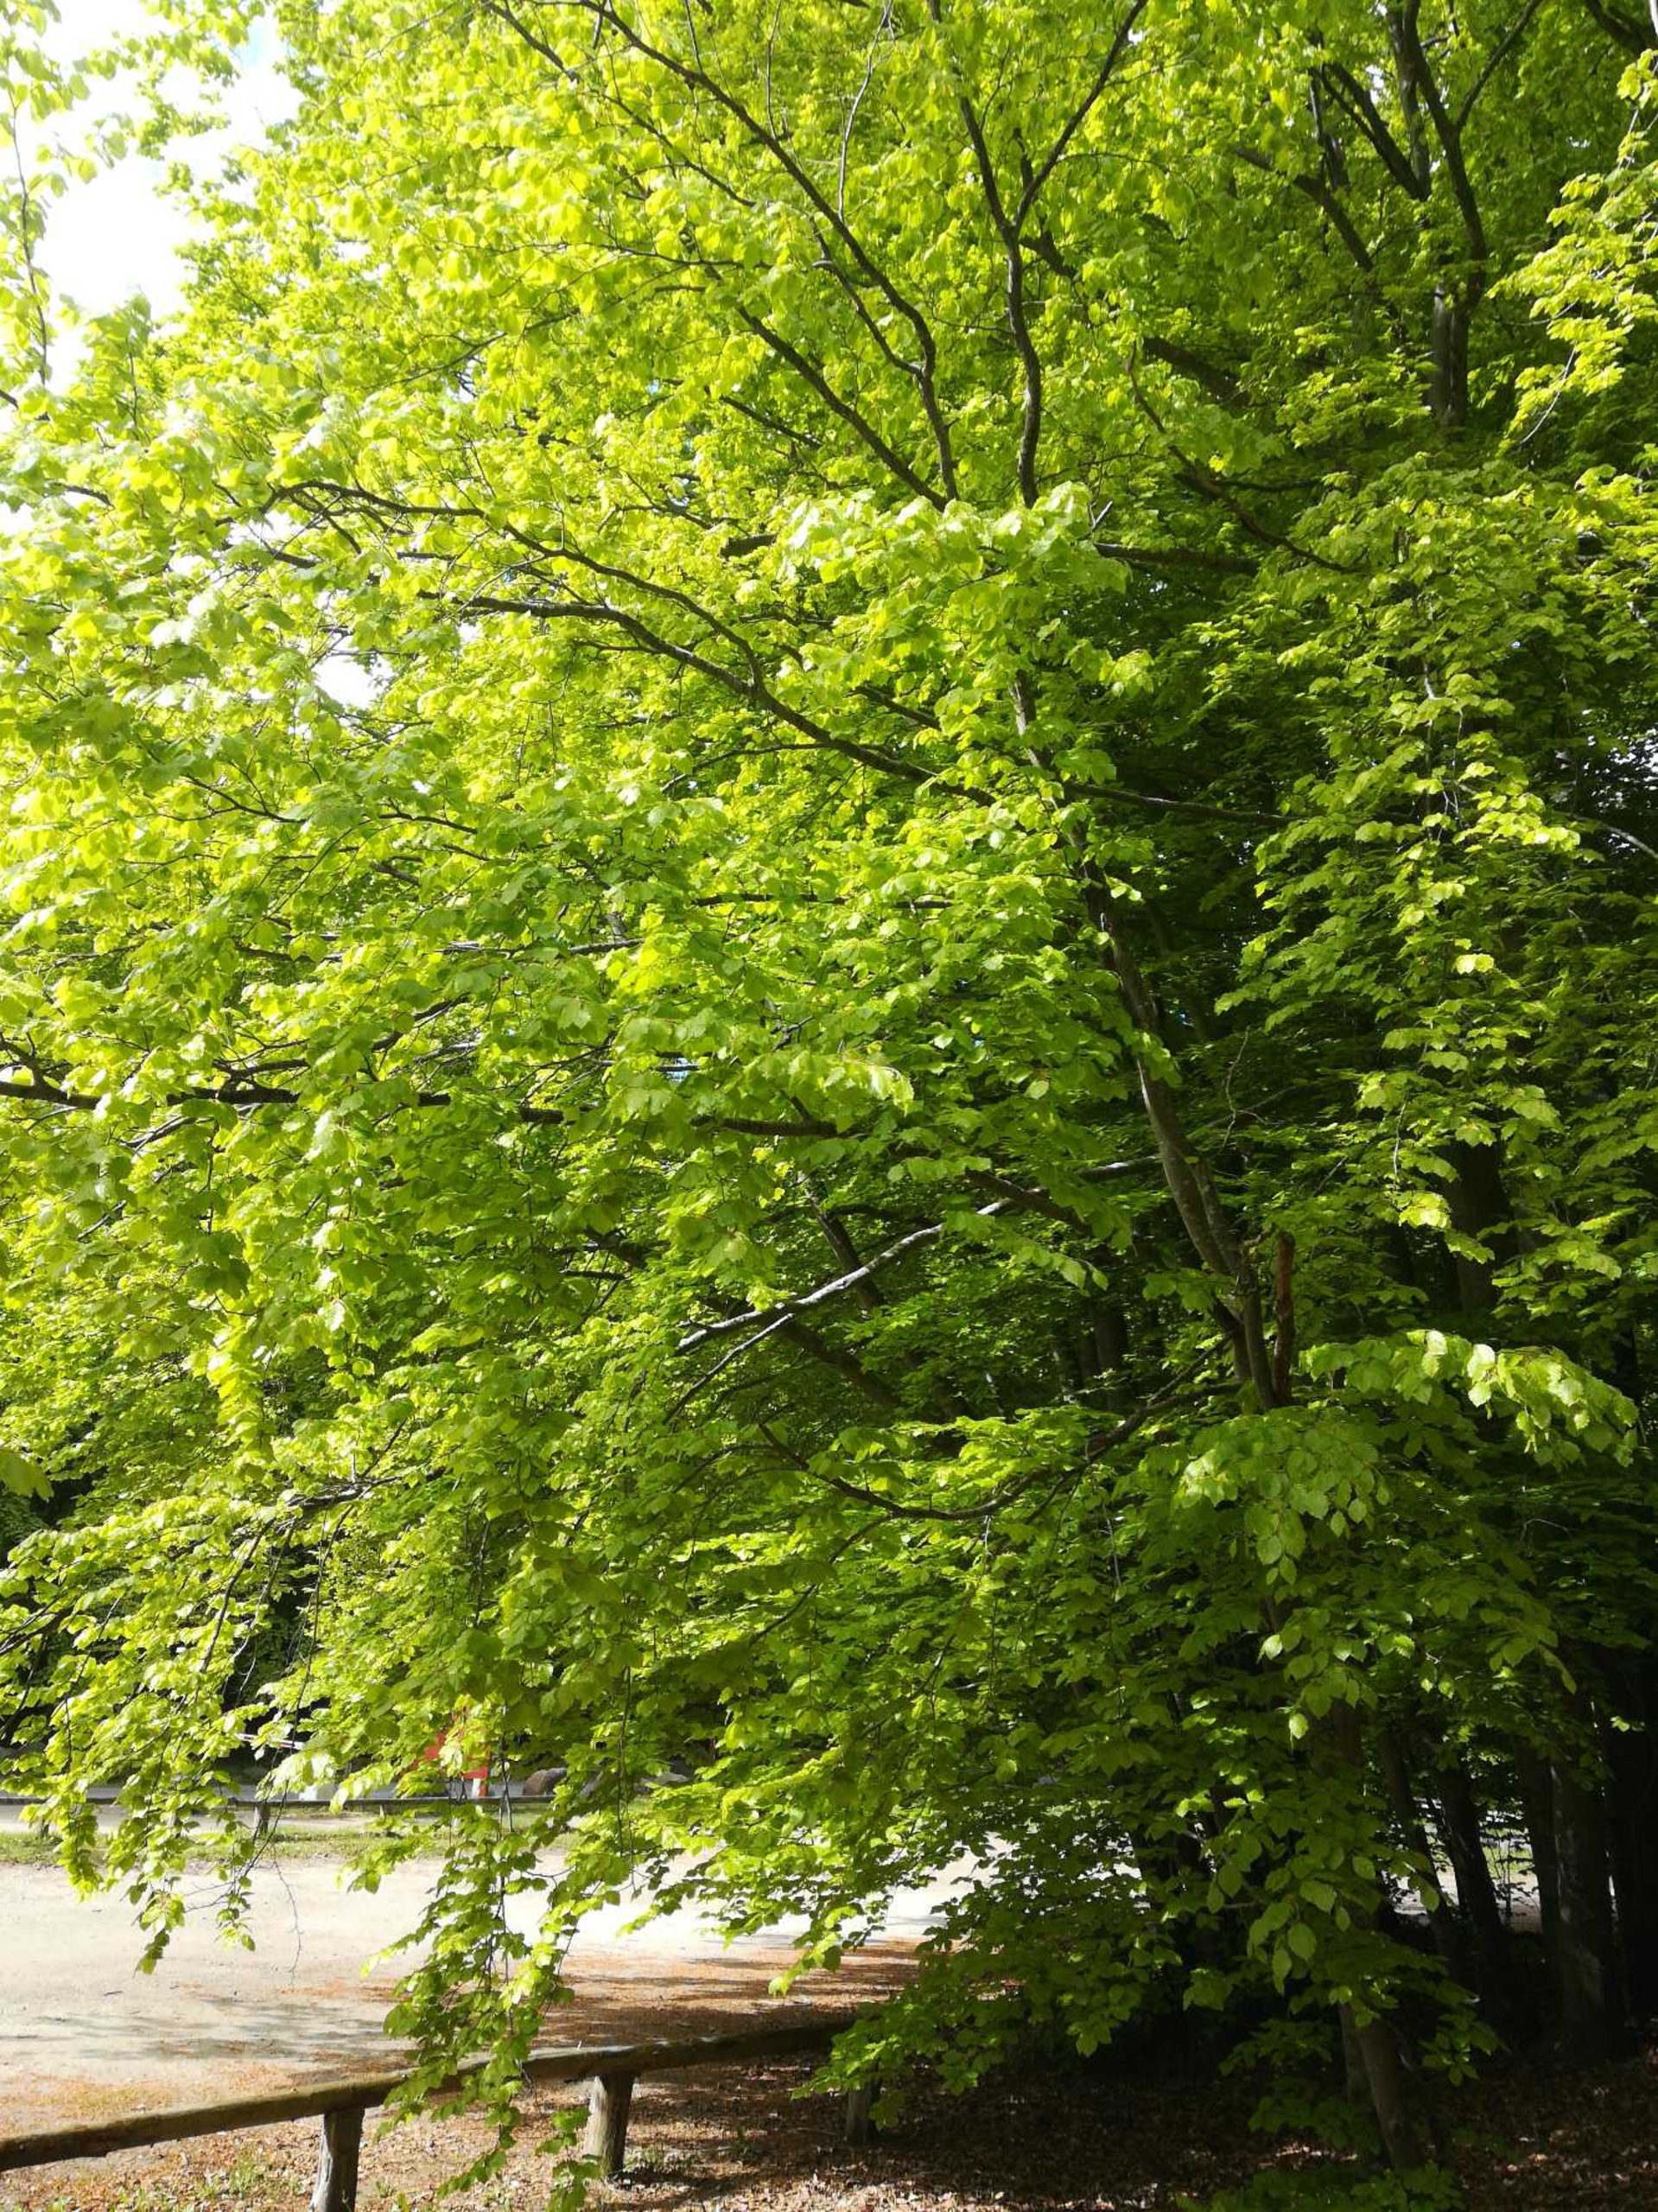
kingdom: Plantae
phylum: Tracheophyta
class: Magnoliopsida
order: Fagales
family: Fagaceae
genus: Fagus
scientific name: Fagus sylvatica
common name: Bøg
